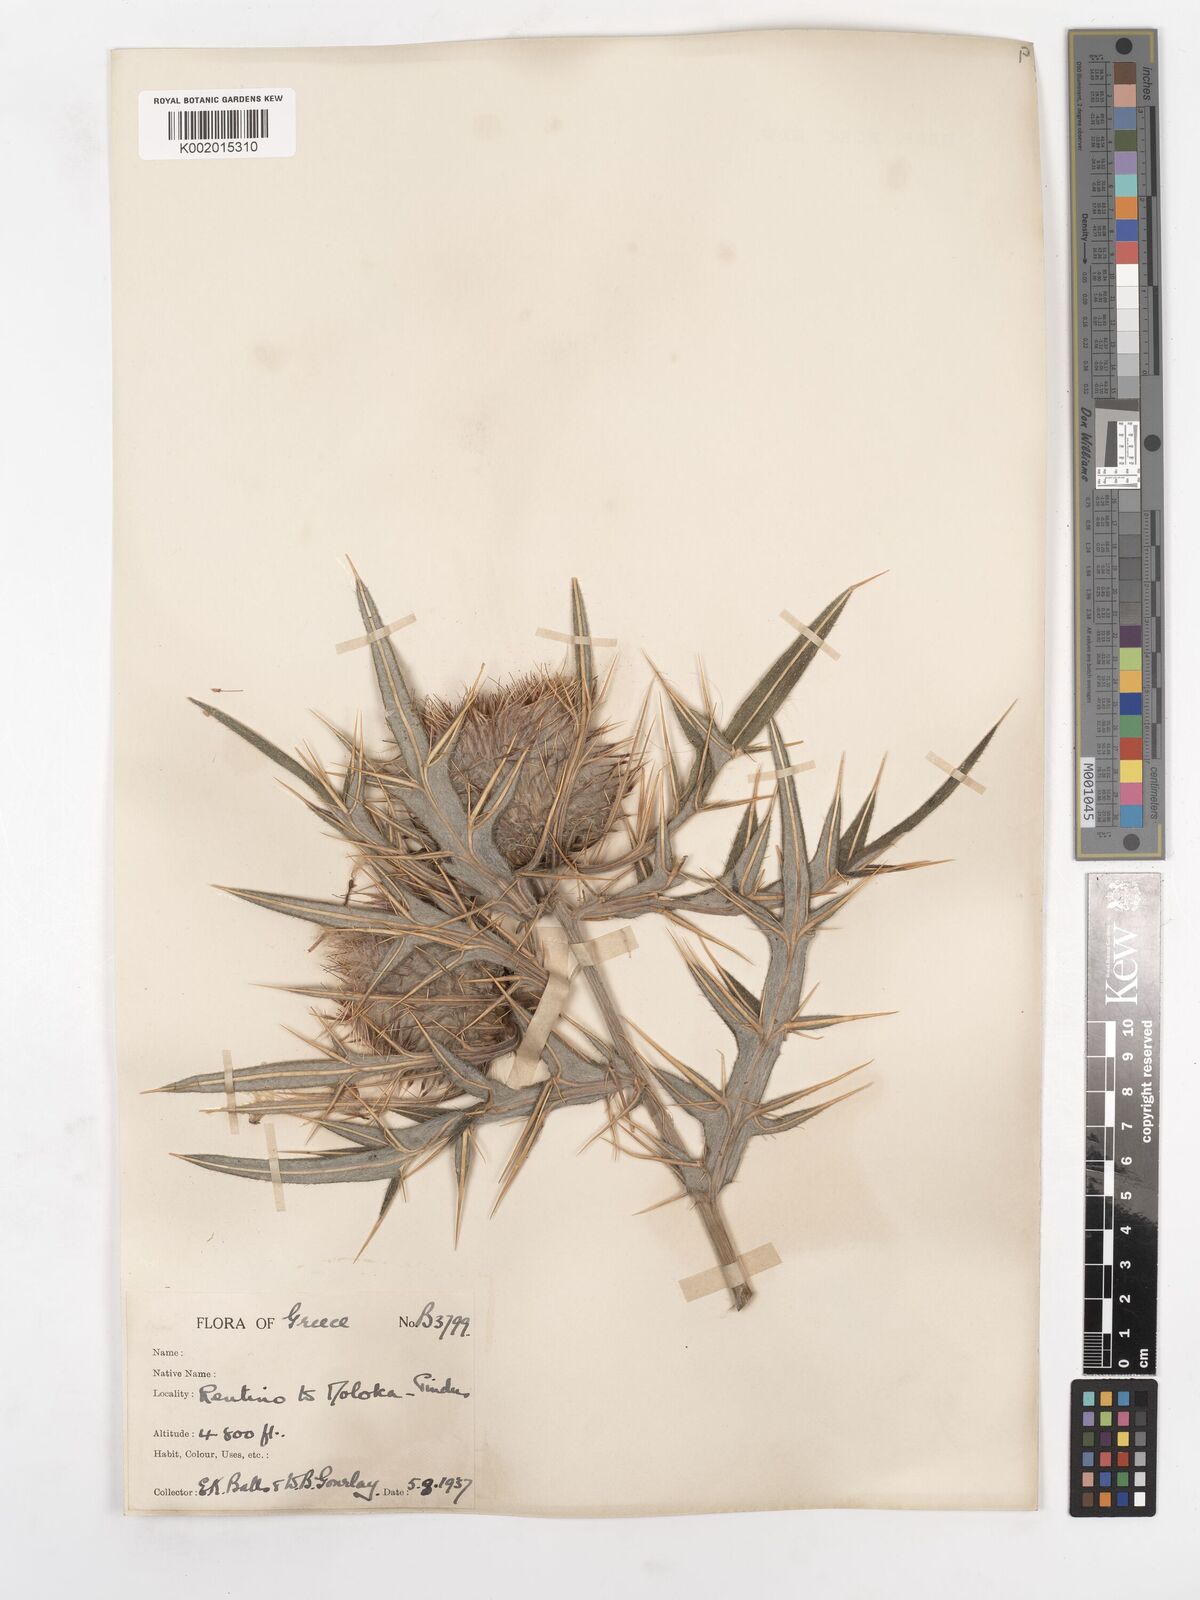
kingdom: Plantae
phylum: Tracheophyta
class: Magnoliopsida
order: Asterales
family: Asteraceae
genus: Lophiolepis
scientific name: Lophiolepis eriophora
